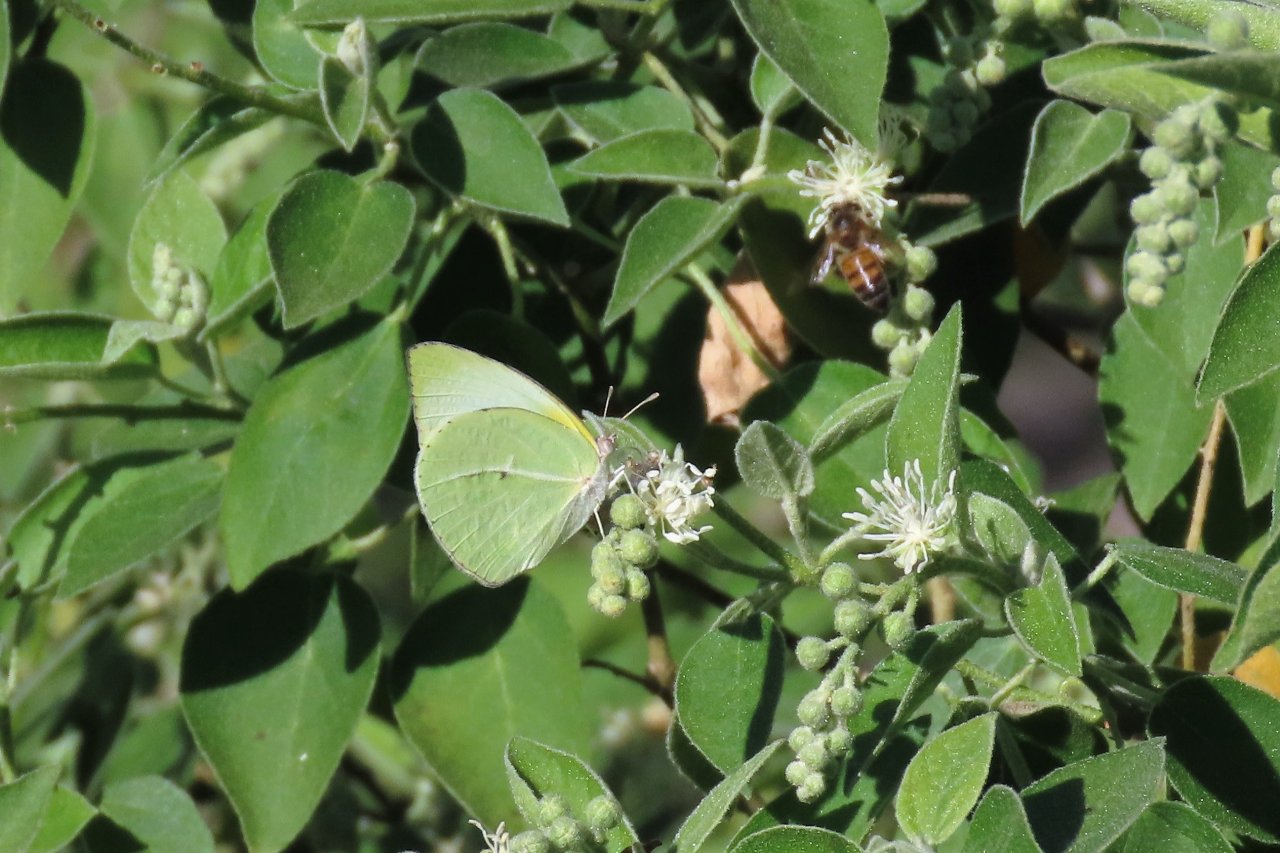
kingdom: Animalia
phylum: Arthropoda
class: Insecta
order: Lepidoptera
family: Pieridae
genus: Kricogonia
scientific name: Kricogonia lyside
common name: Lyside Sulphur
